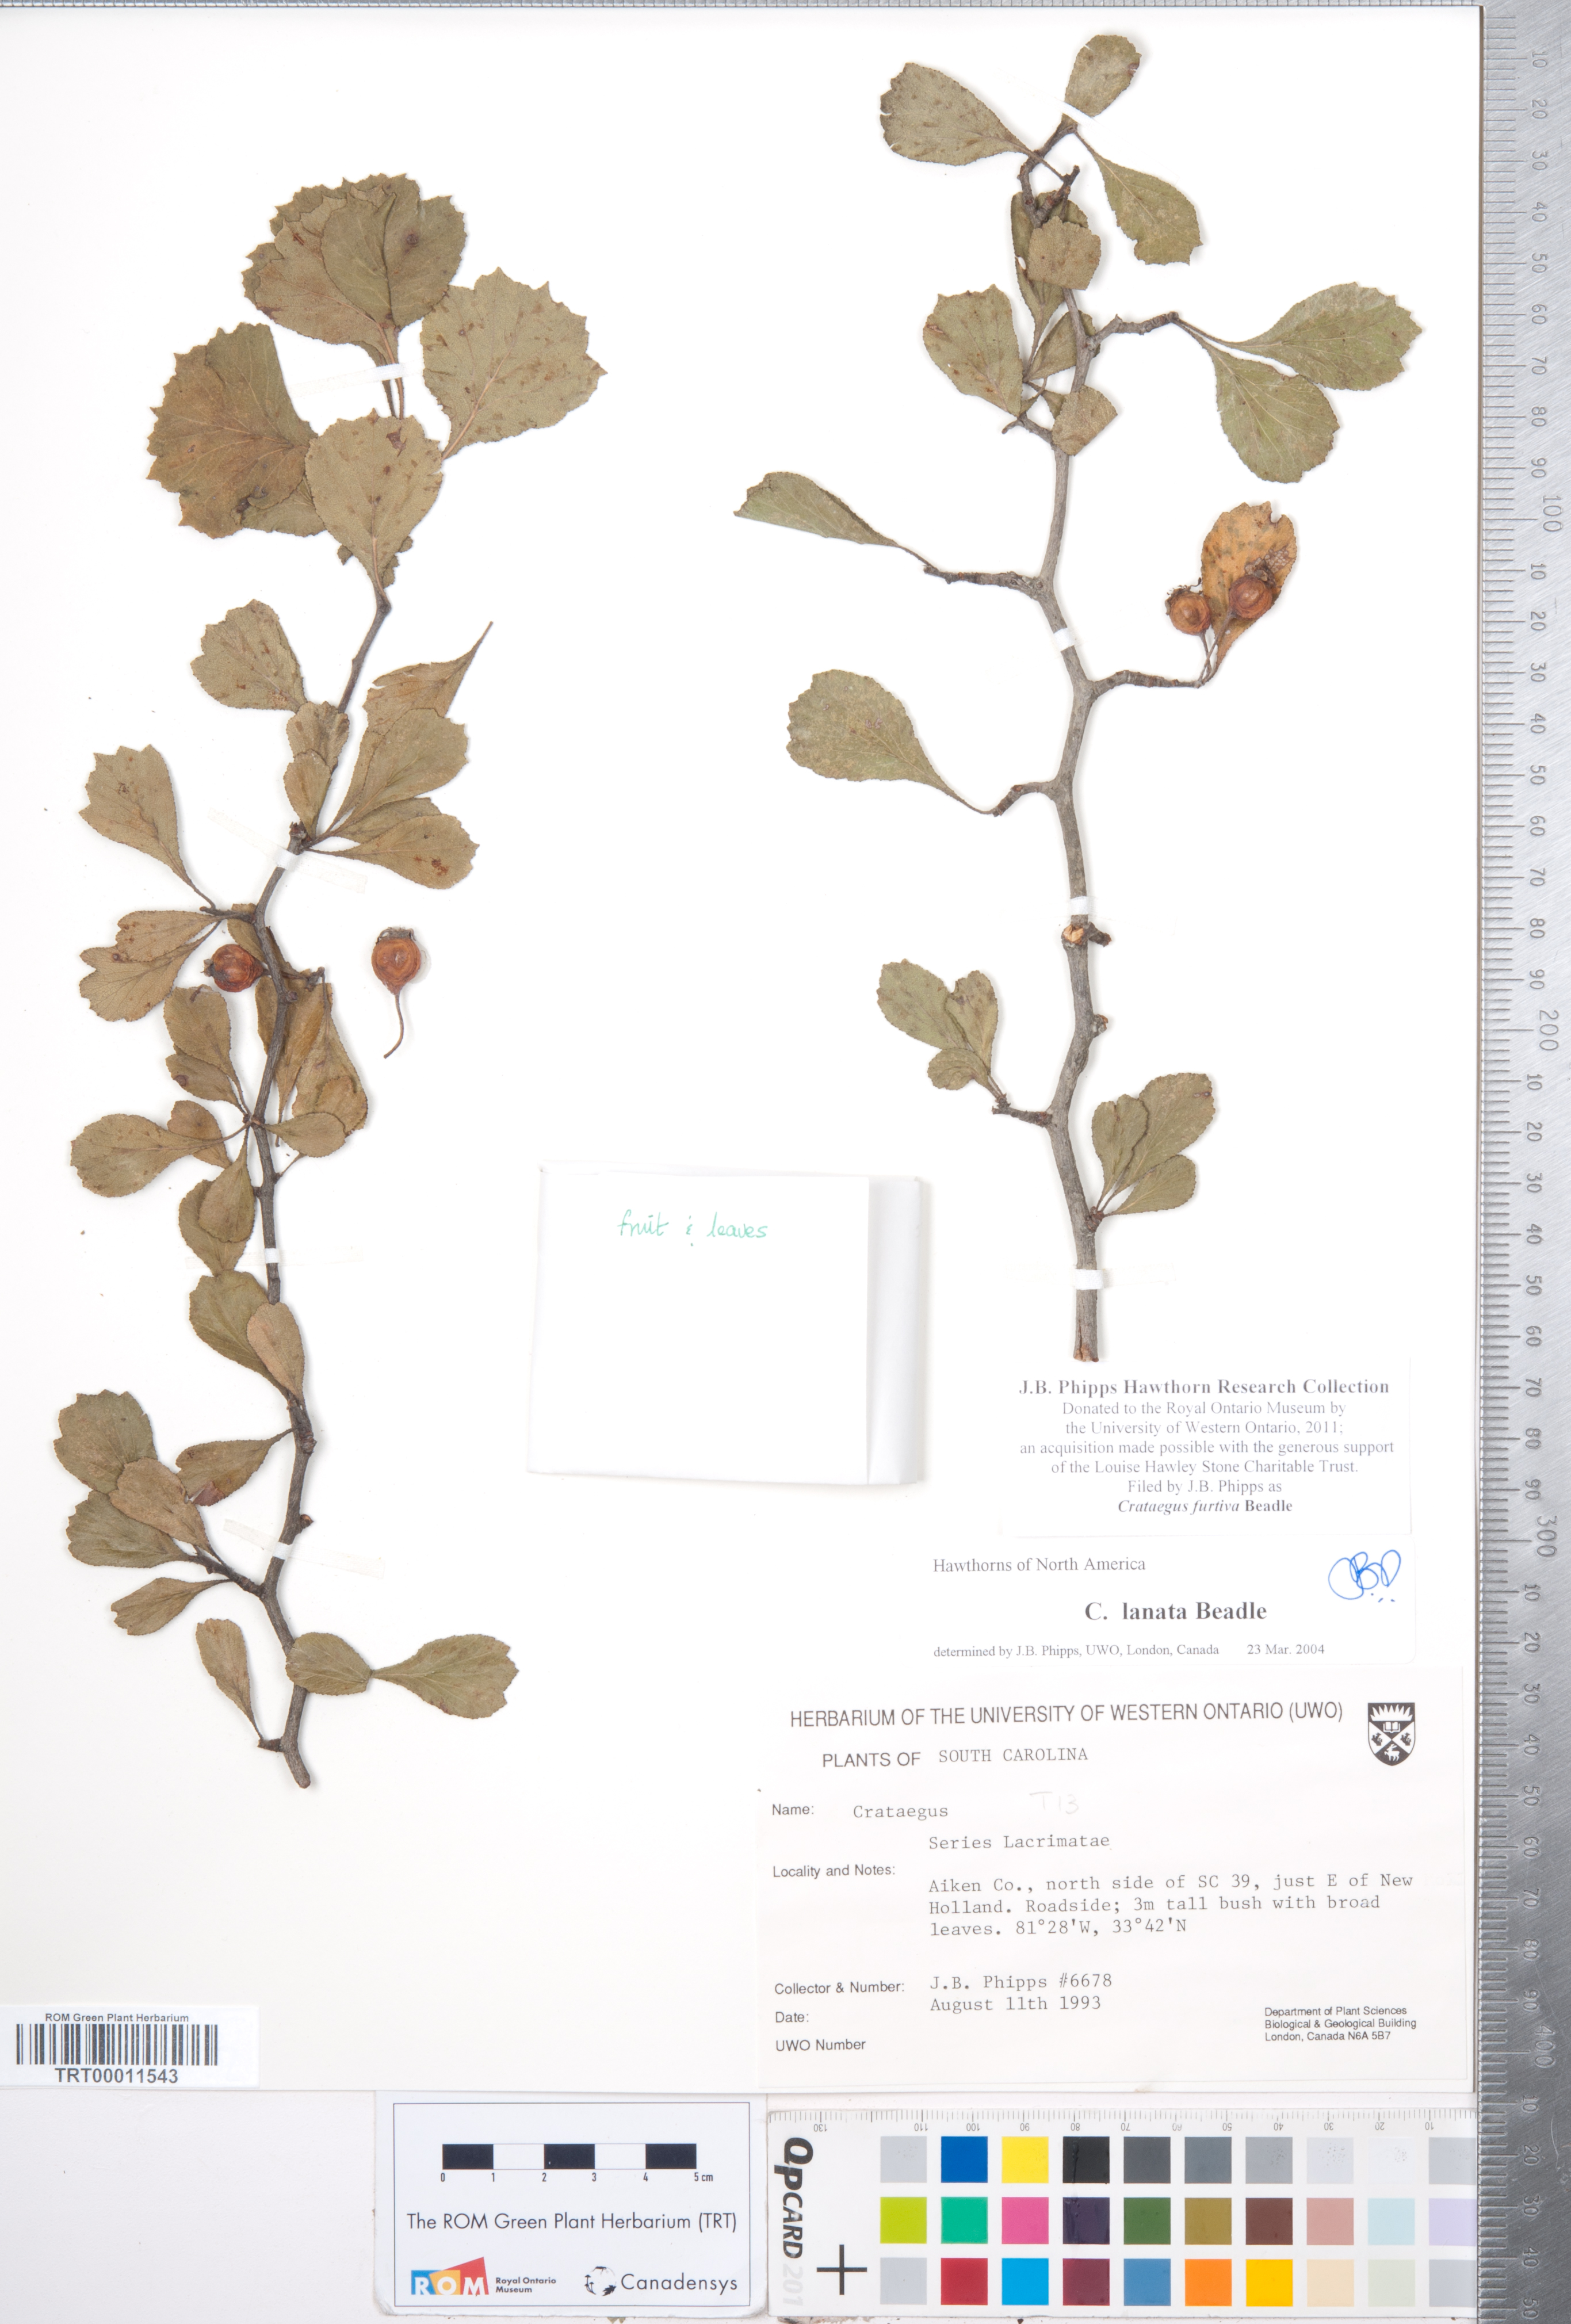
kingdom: Plantae
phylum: Tracheophyta
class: Magnoliopsida
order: Rosales
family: Rosaceae
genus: Crataegus
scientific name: Crataegus senta
